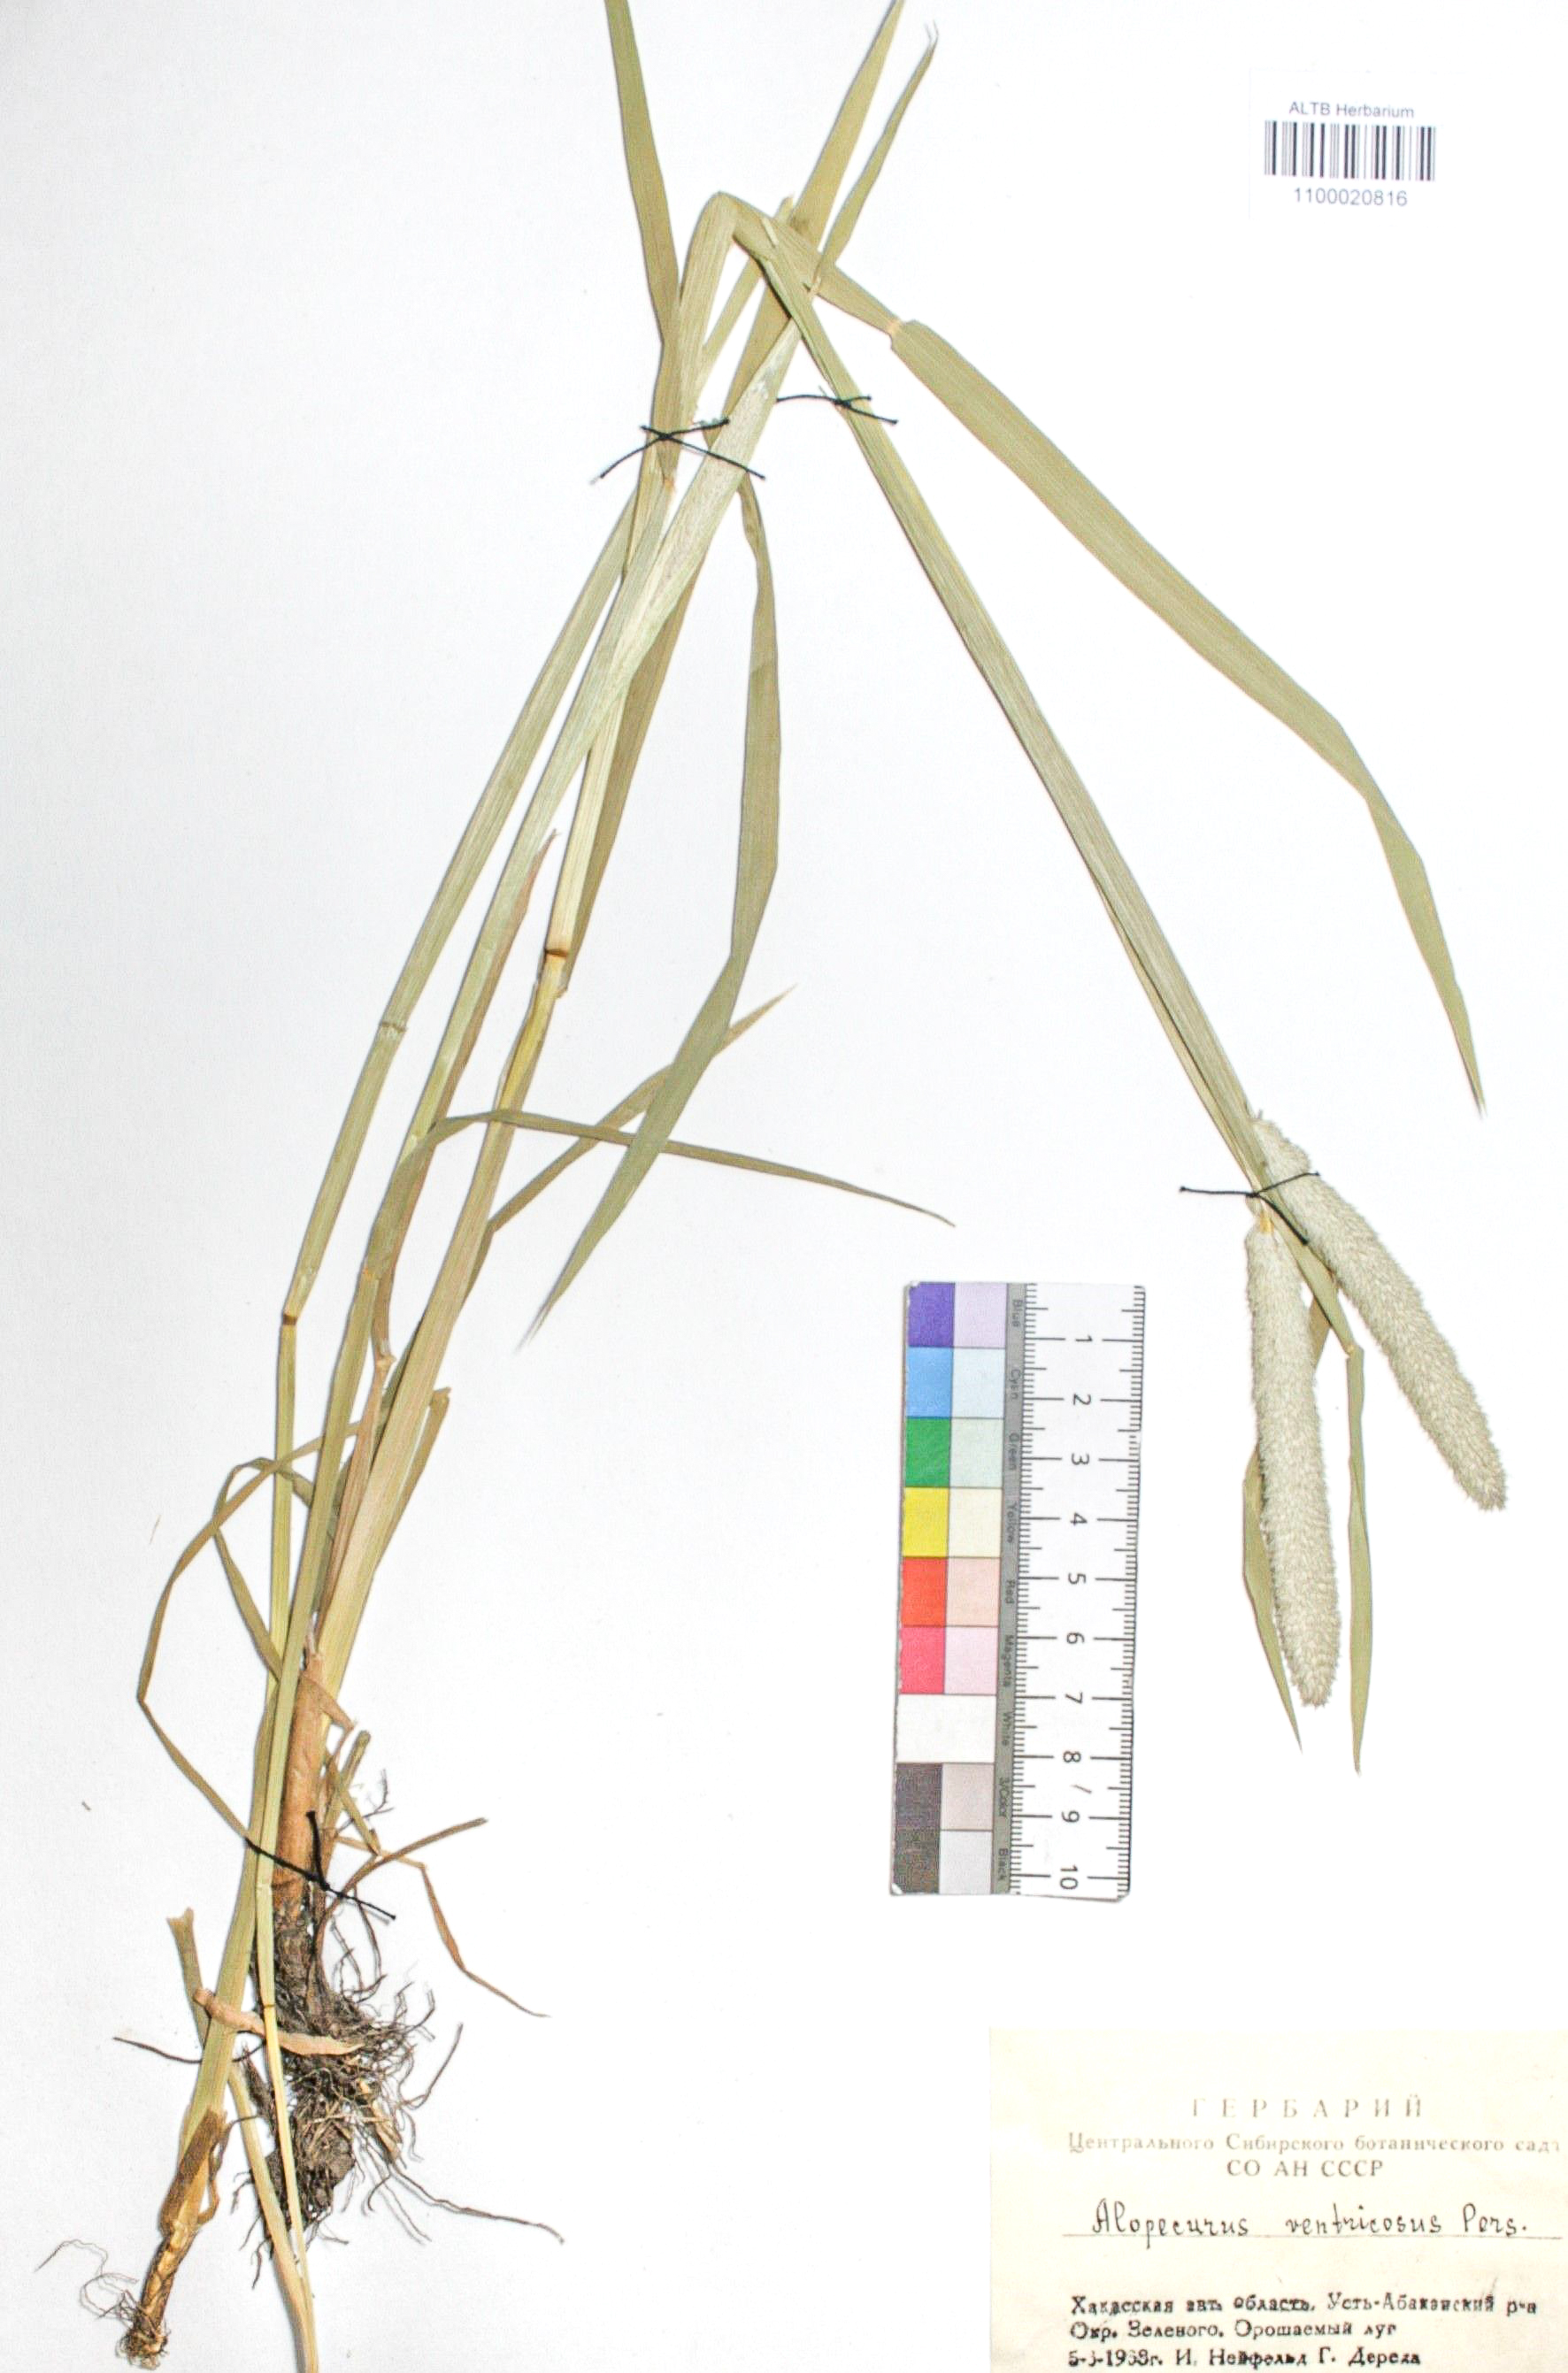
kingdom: Plantae
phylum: Tracheophyta
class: Liliopsida
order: Poales
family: Poaceae
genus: Alopecurus
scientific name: Alopecurus arundinaceus
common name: Creeping meadow foxtail
